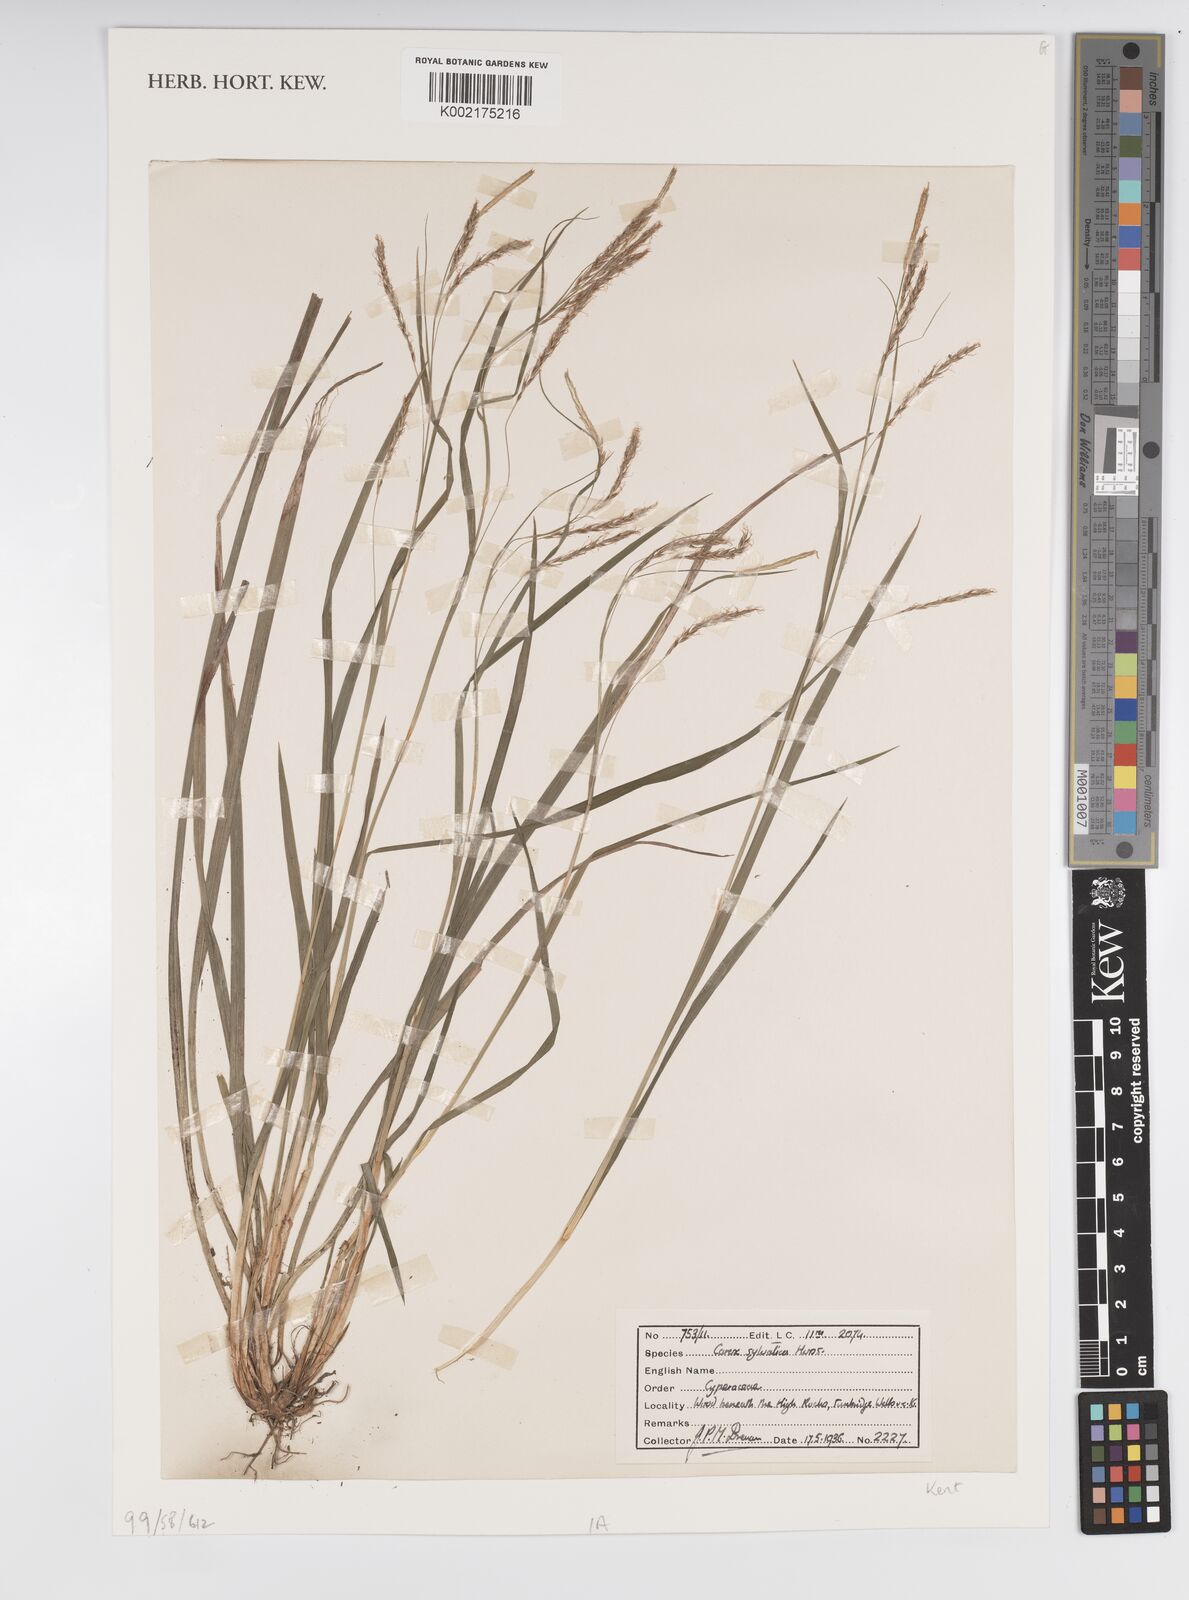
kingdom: Plantae
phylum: Tracheophyta
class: Liliopsida
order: Poales
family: Cyperaceae
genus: Carex
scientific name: Carex sylvatica
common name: Wood-sedge
